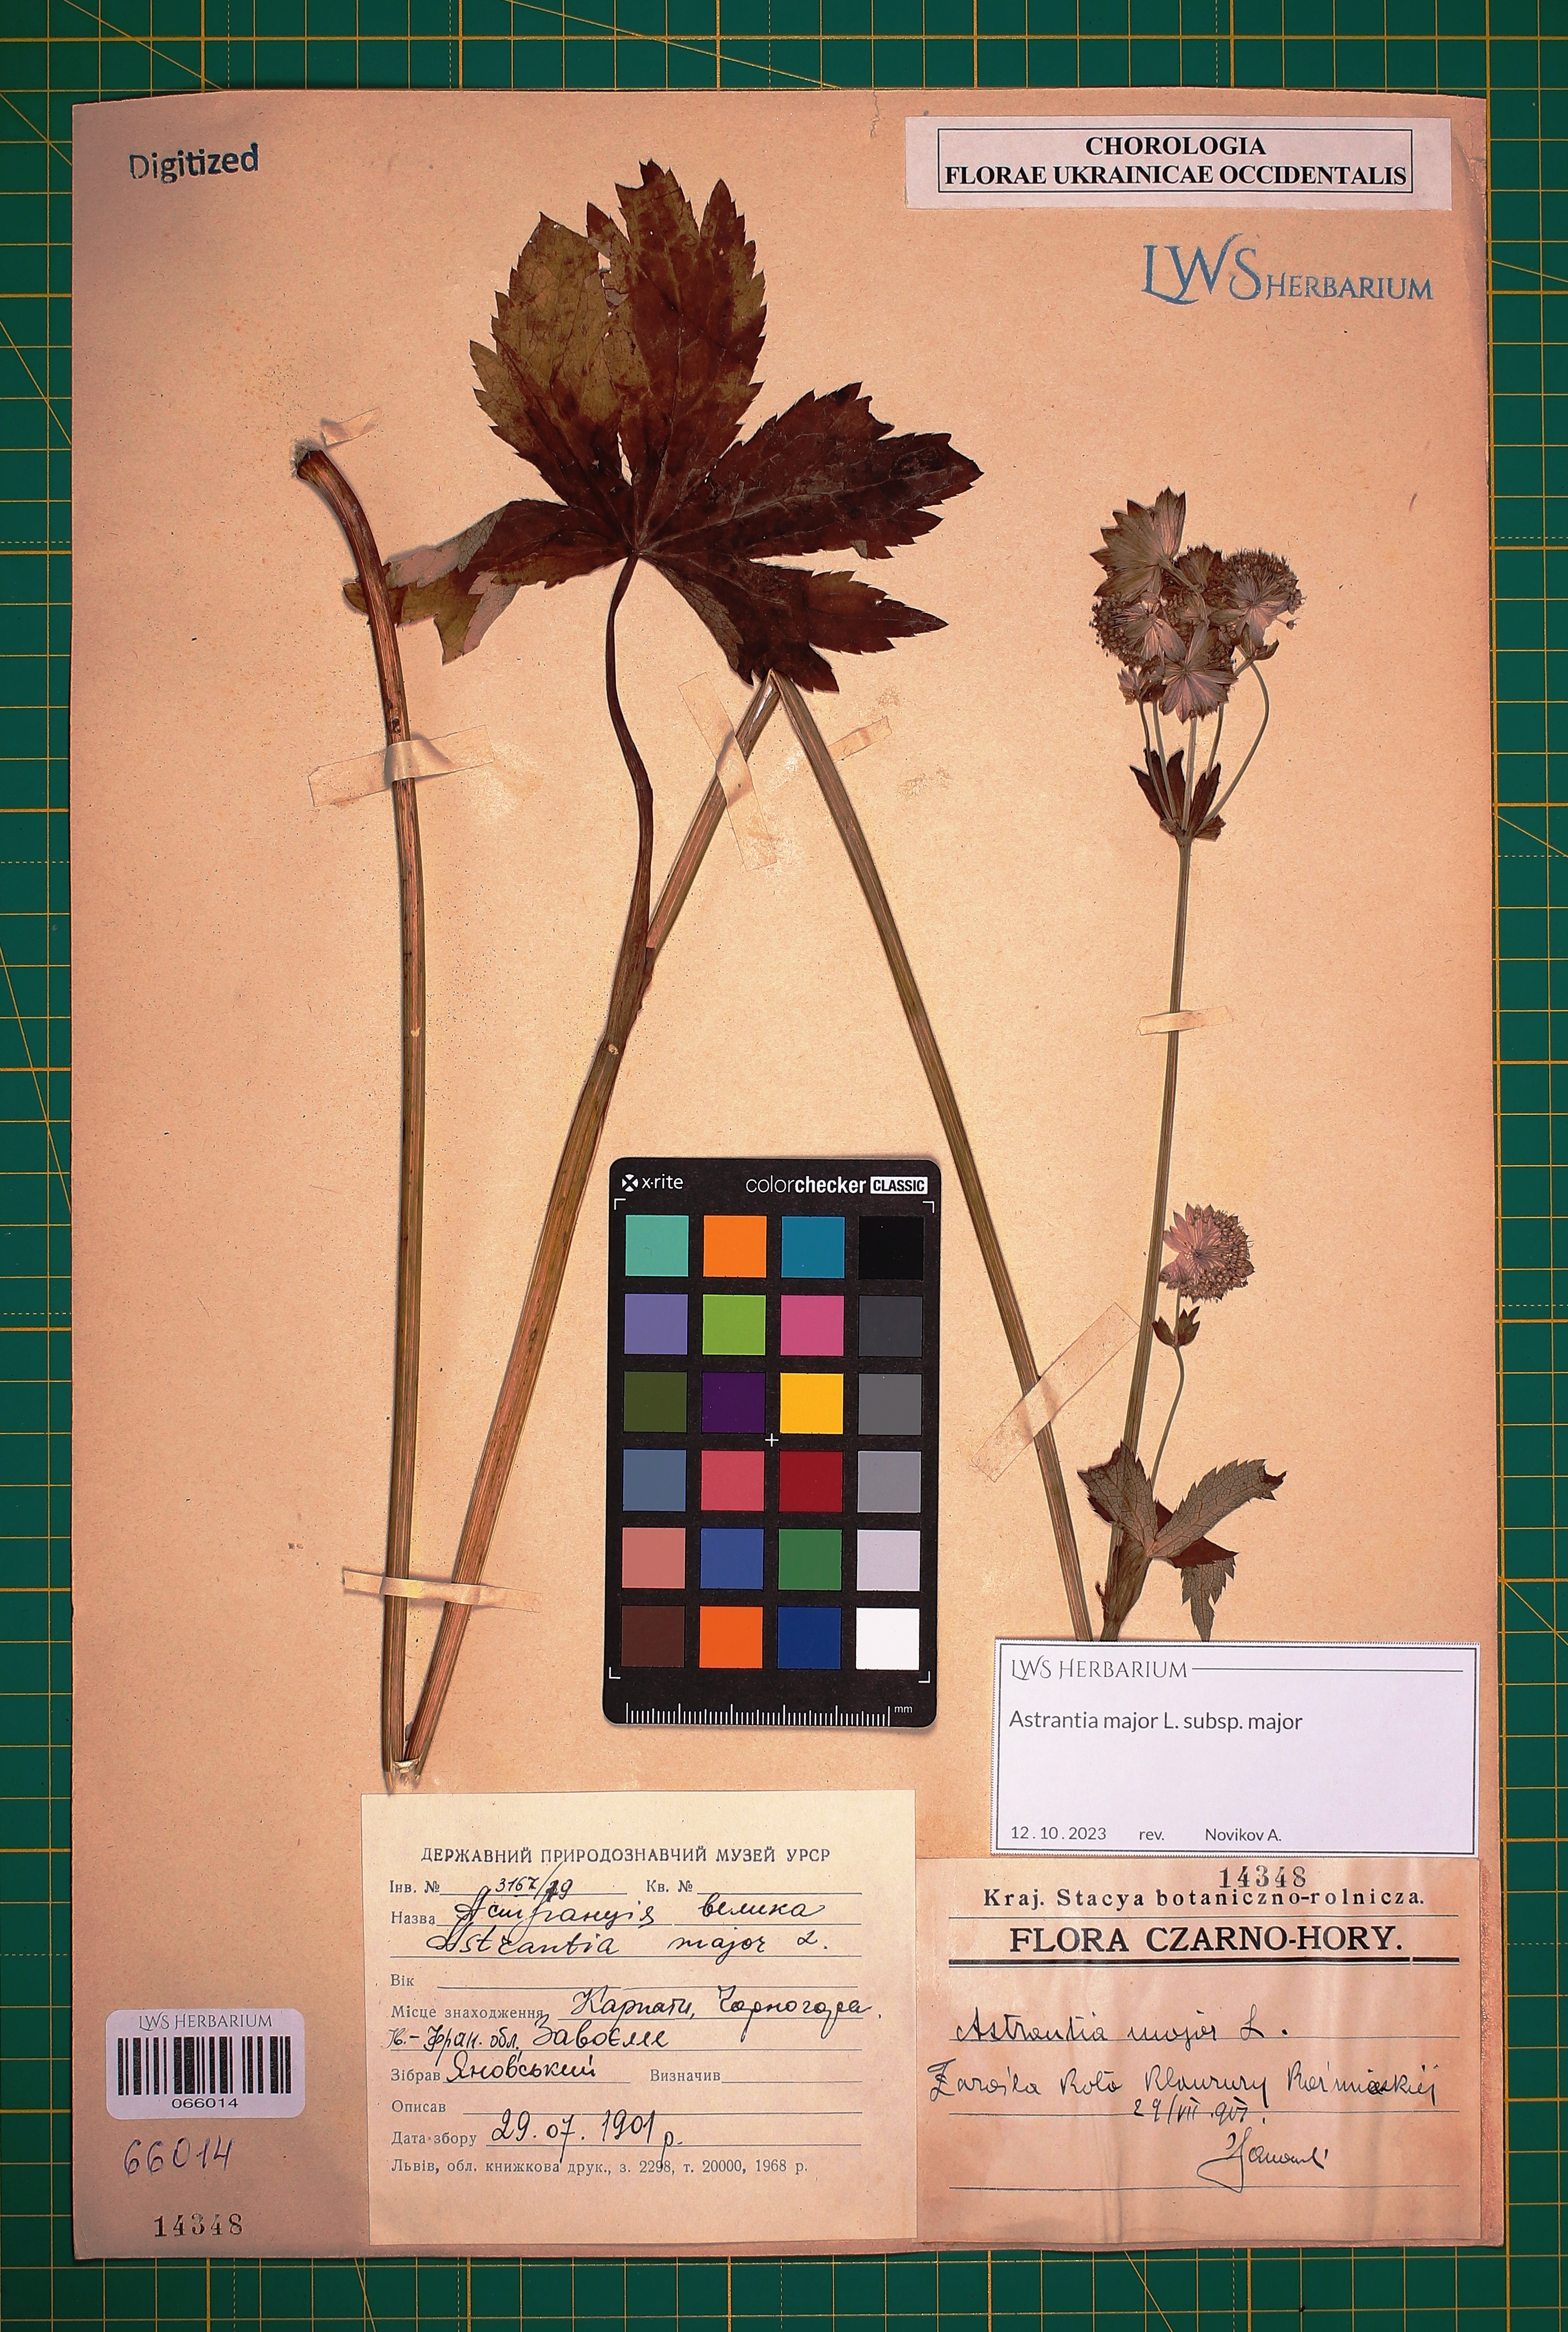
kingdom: Plantae
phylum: Tracheophyta
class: Magnoliopsida
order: Apiales
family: Apiaceae
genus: Astrantia
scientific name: Astrantia major
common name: Greater masterwort
